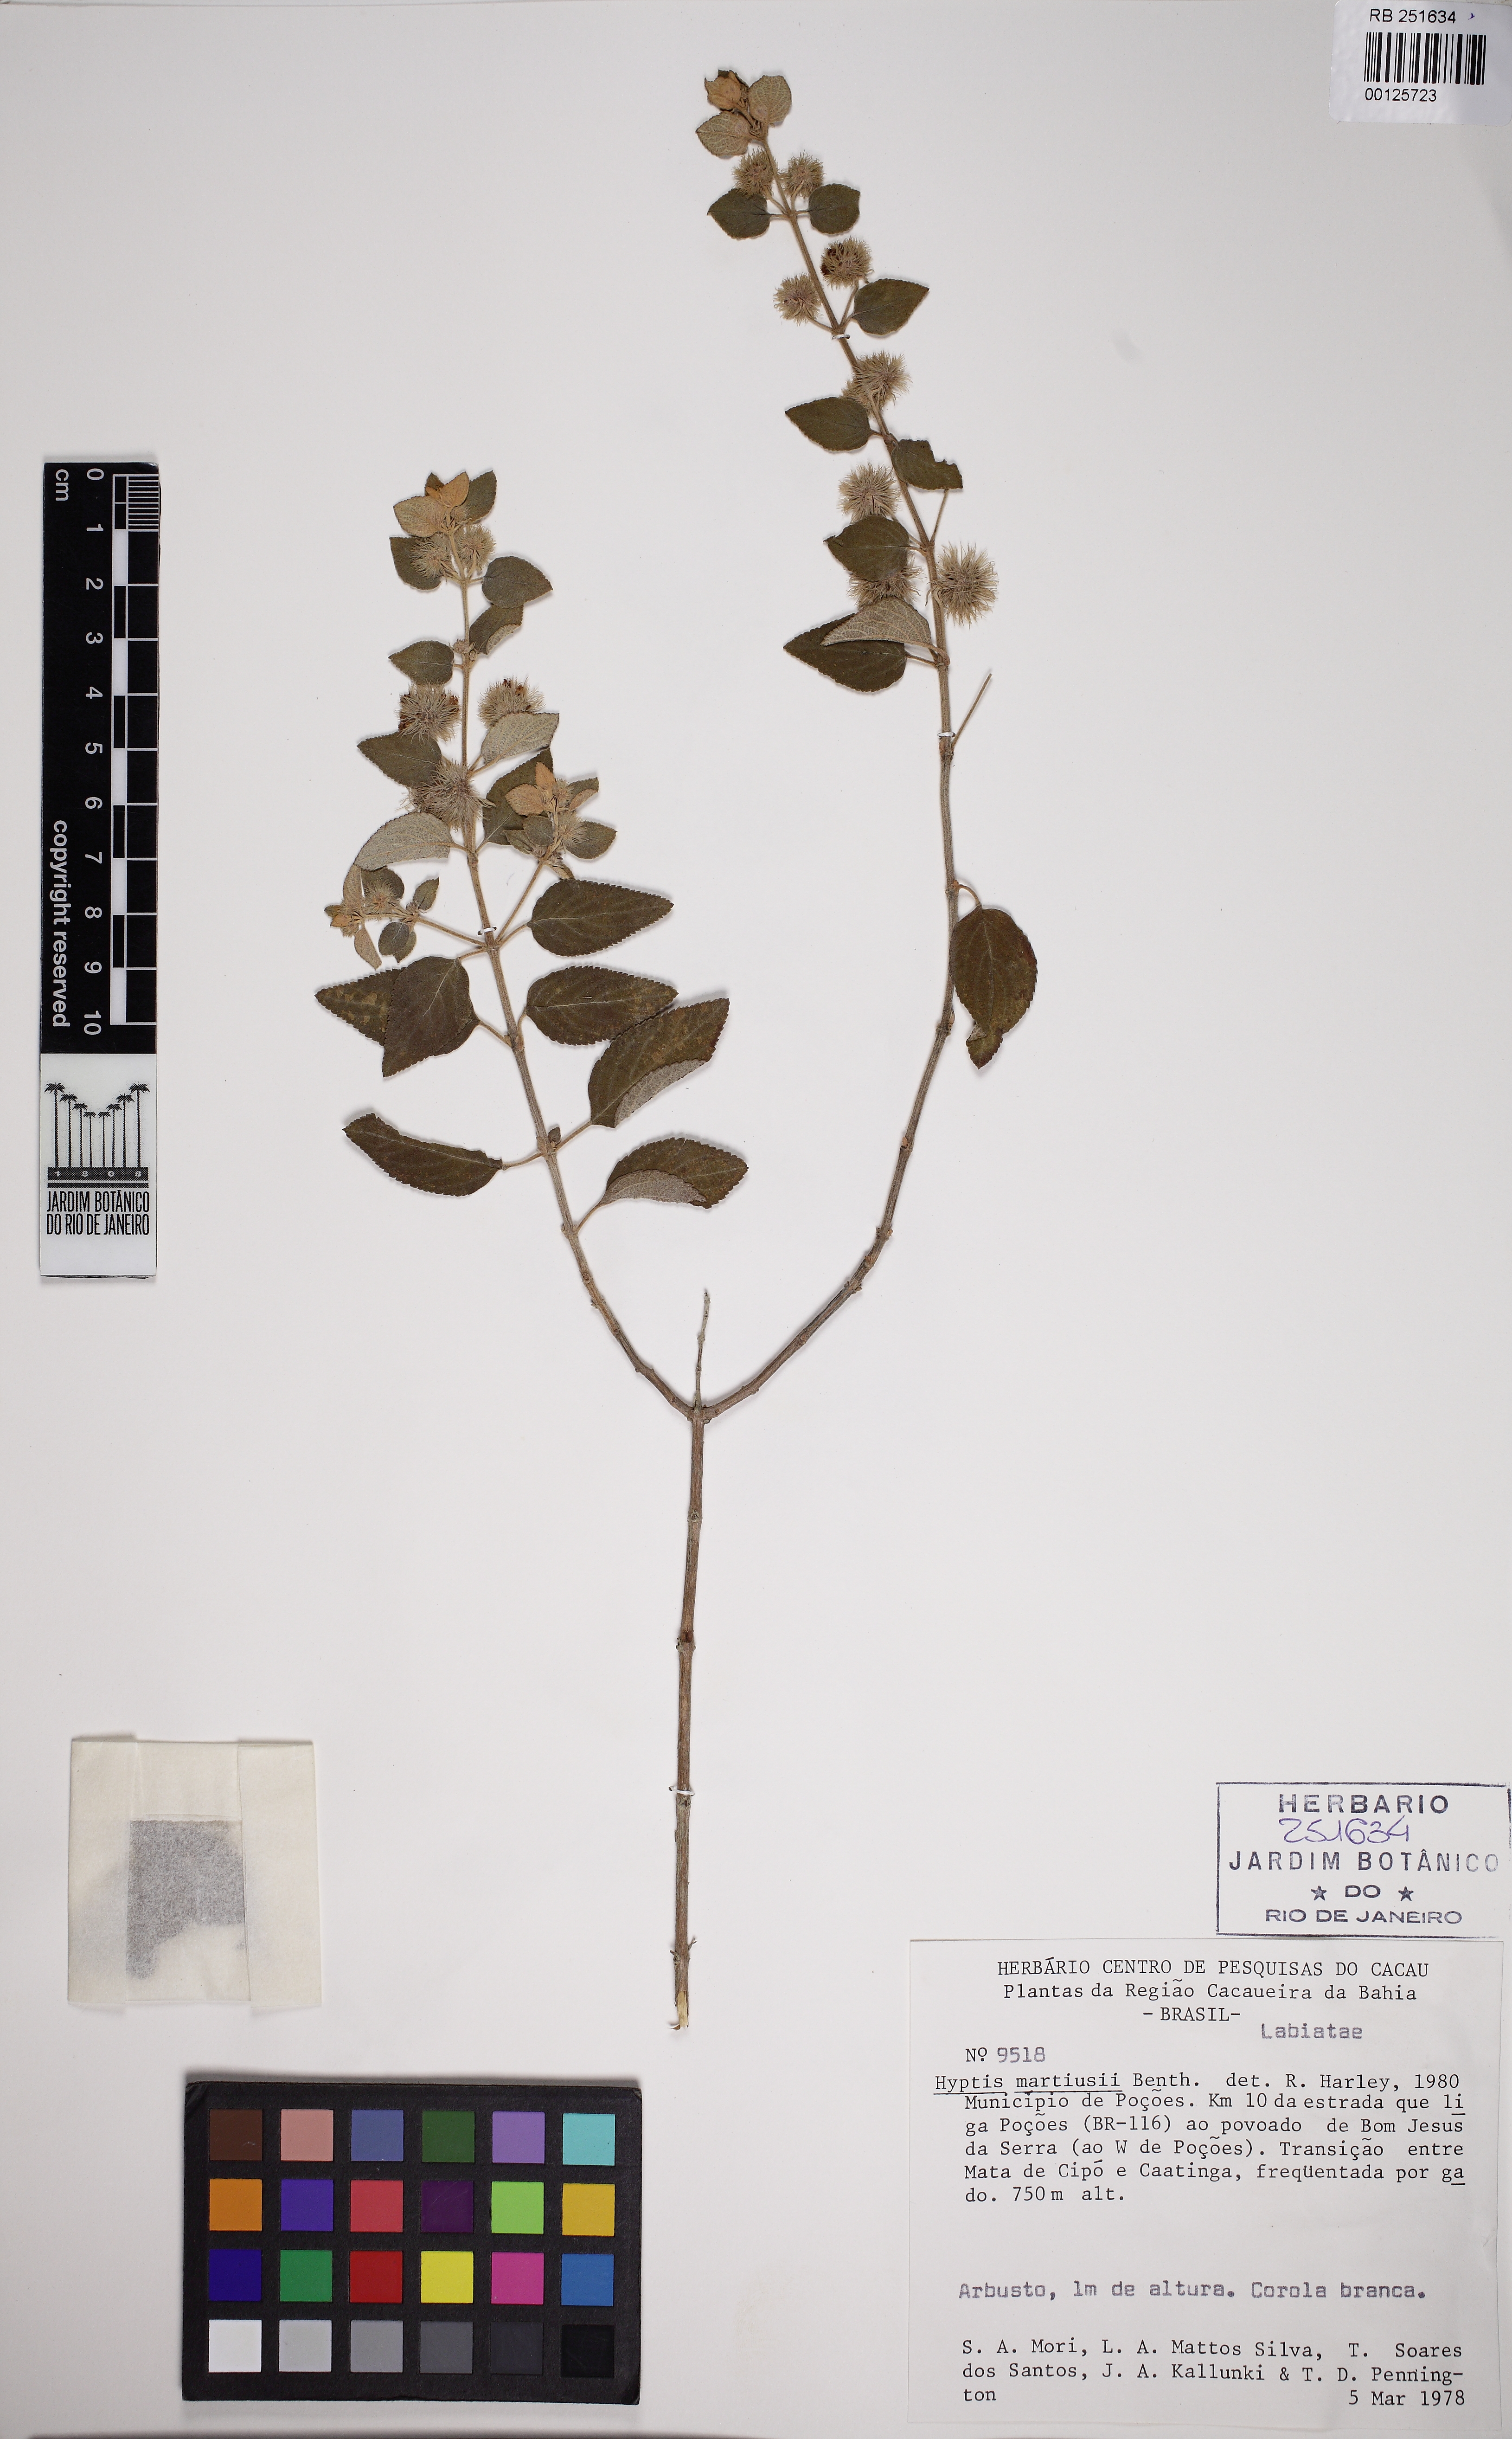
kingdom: Plantae
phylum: Tracheophyta
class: Magnoliopsida
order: Lamiales
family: Lamiaceae
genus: Medusantha
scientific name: Medusantha martiusii
